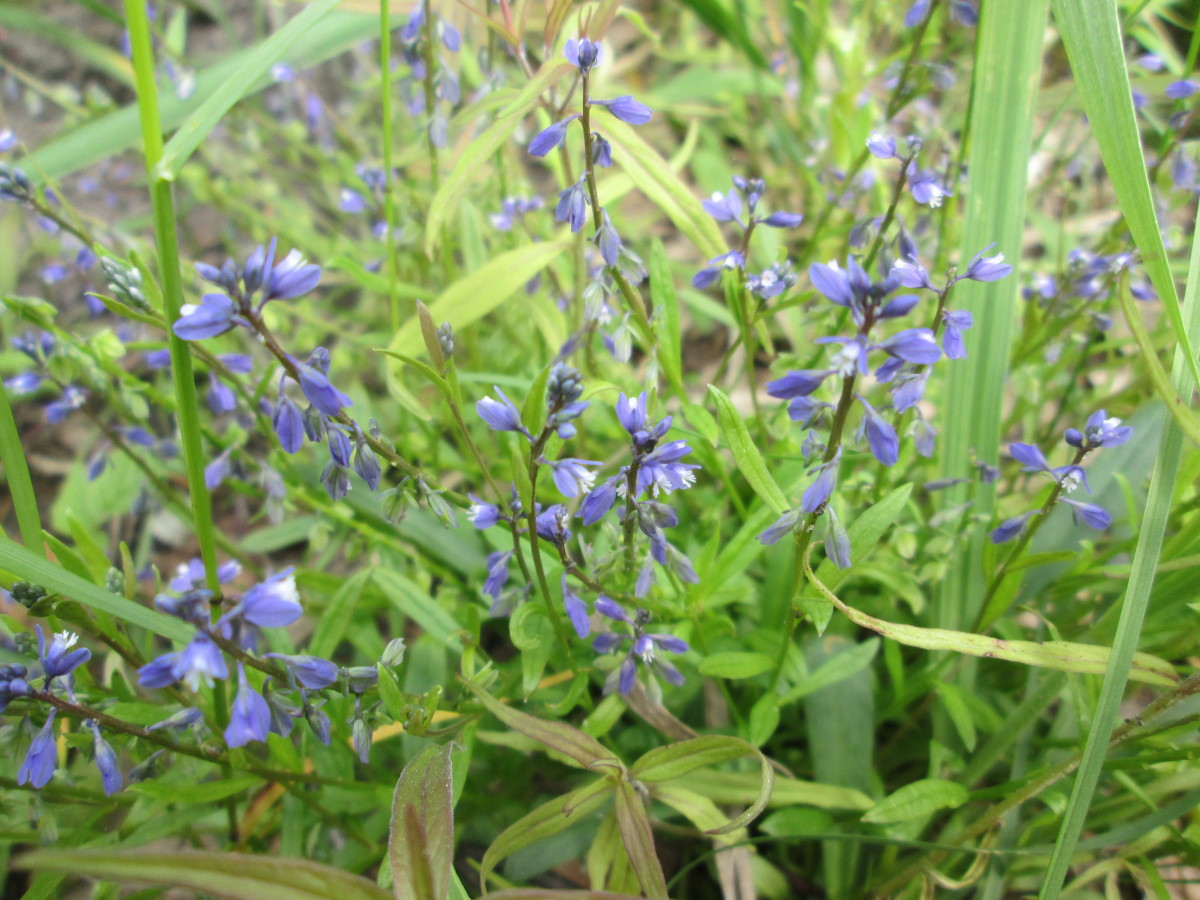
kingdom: Plantae
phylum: Tracheophyta
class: Magnoliopsida
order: Fabales
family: Polygalaceae
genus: Polygala
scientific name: Polygala amarella
